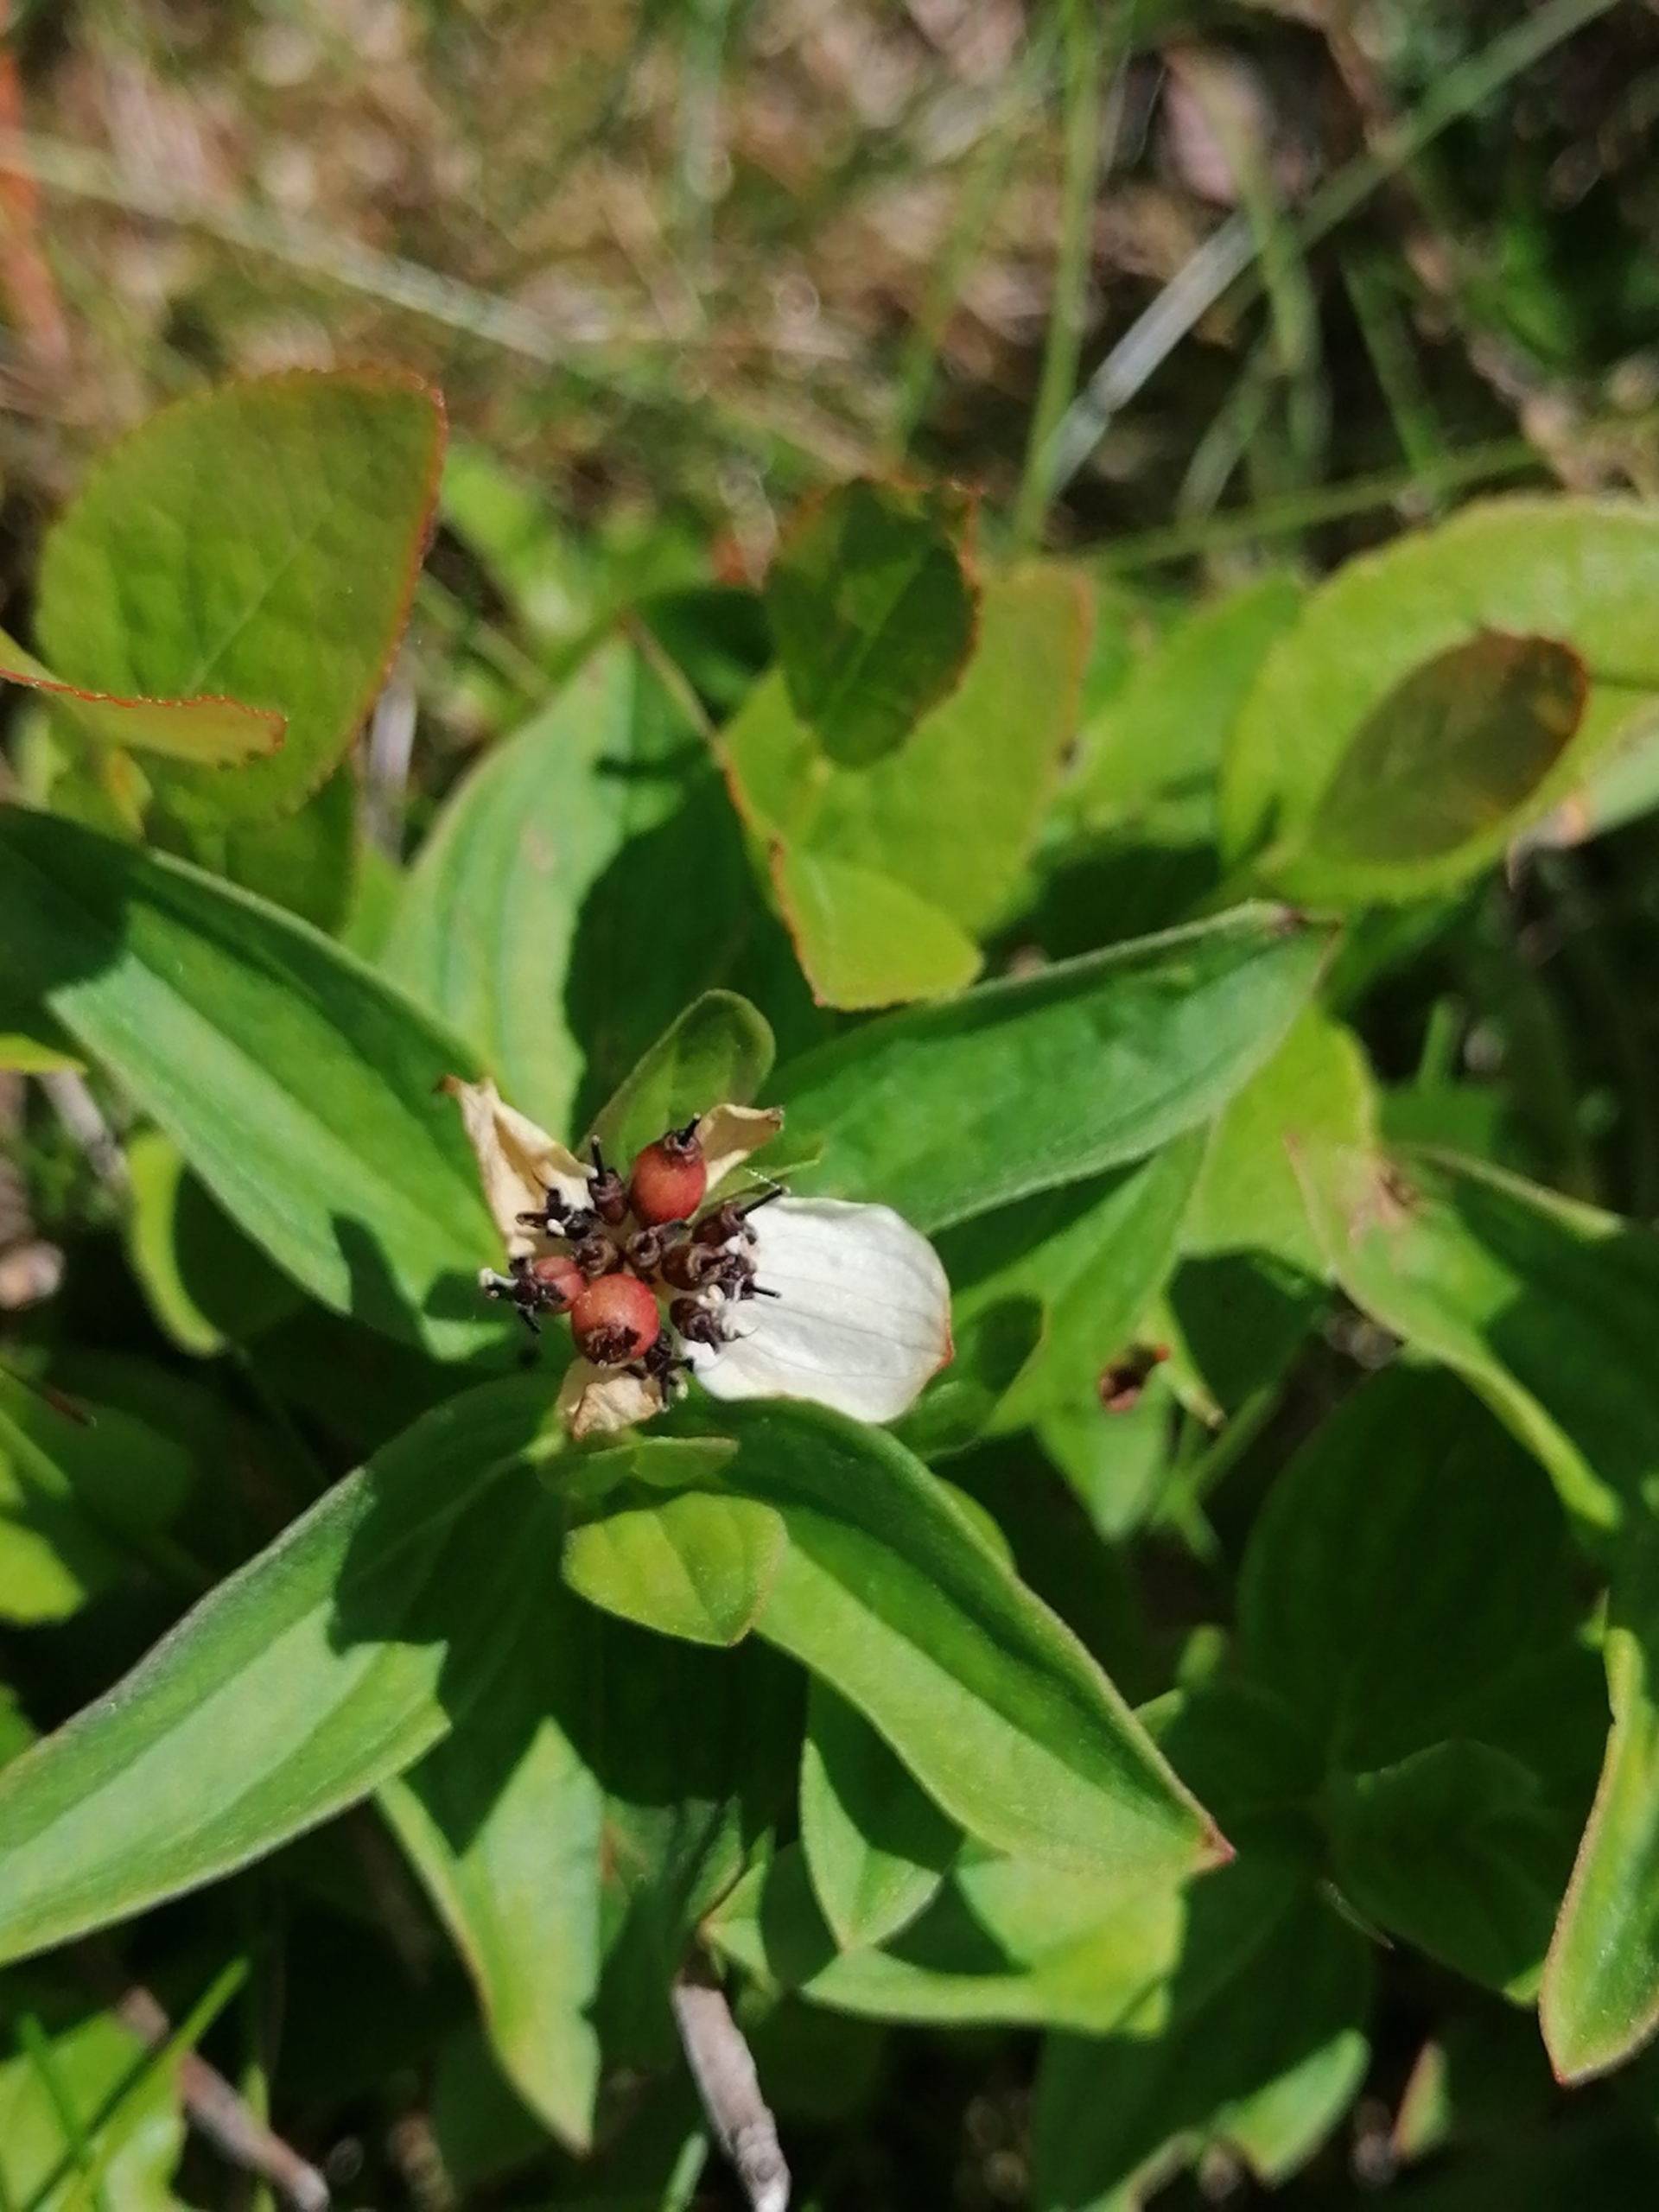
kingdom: Plantae
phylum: Tracheophyta
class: Magnoliopsida
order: Cornales
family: Cornaceae
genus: Cornus
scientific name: Cornus suecica
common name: Hønsebær
